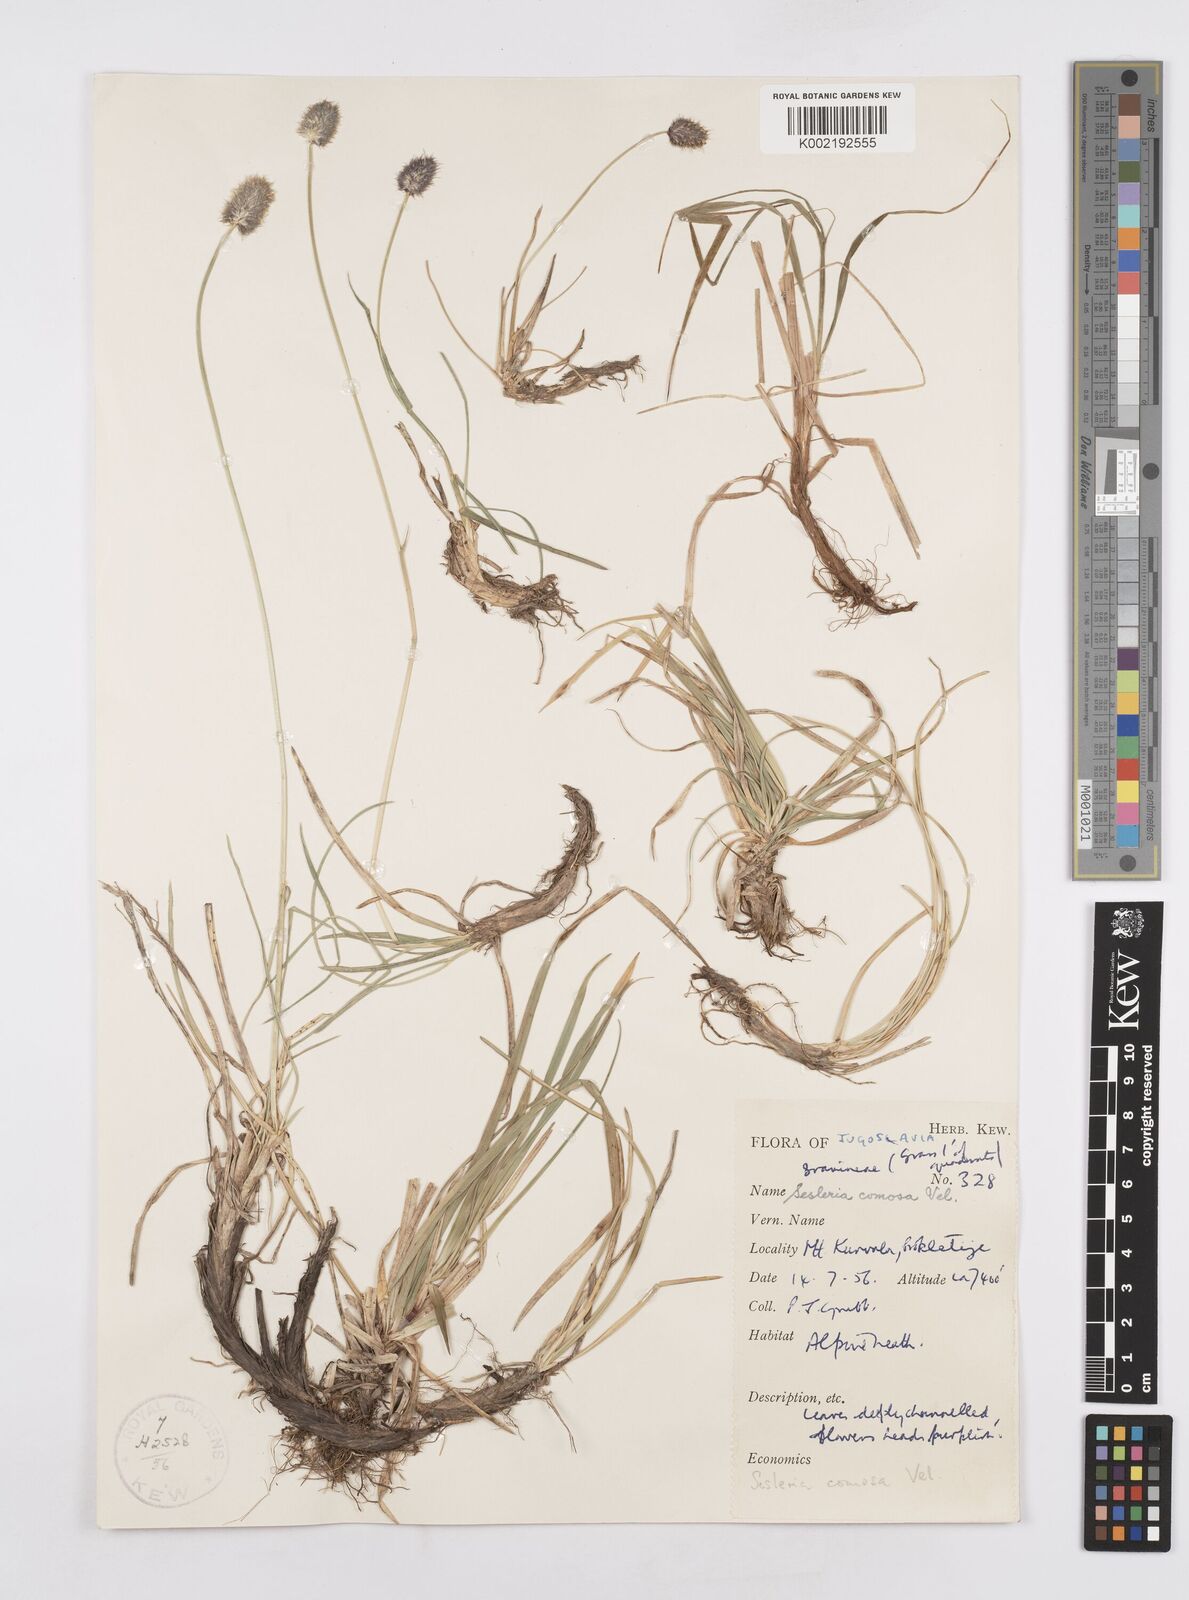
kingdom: Plantae
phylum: Tracheophyta
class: Liliopsida
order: Poales
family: Poaceae
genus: Sesleria
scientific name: Sesleria comosa
